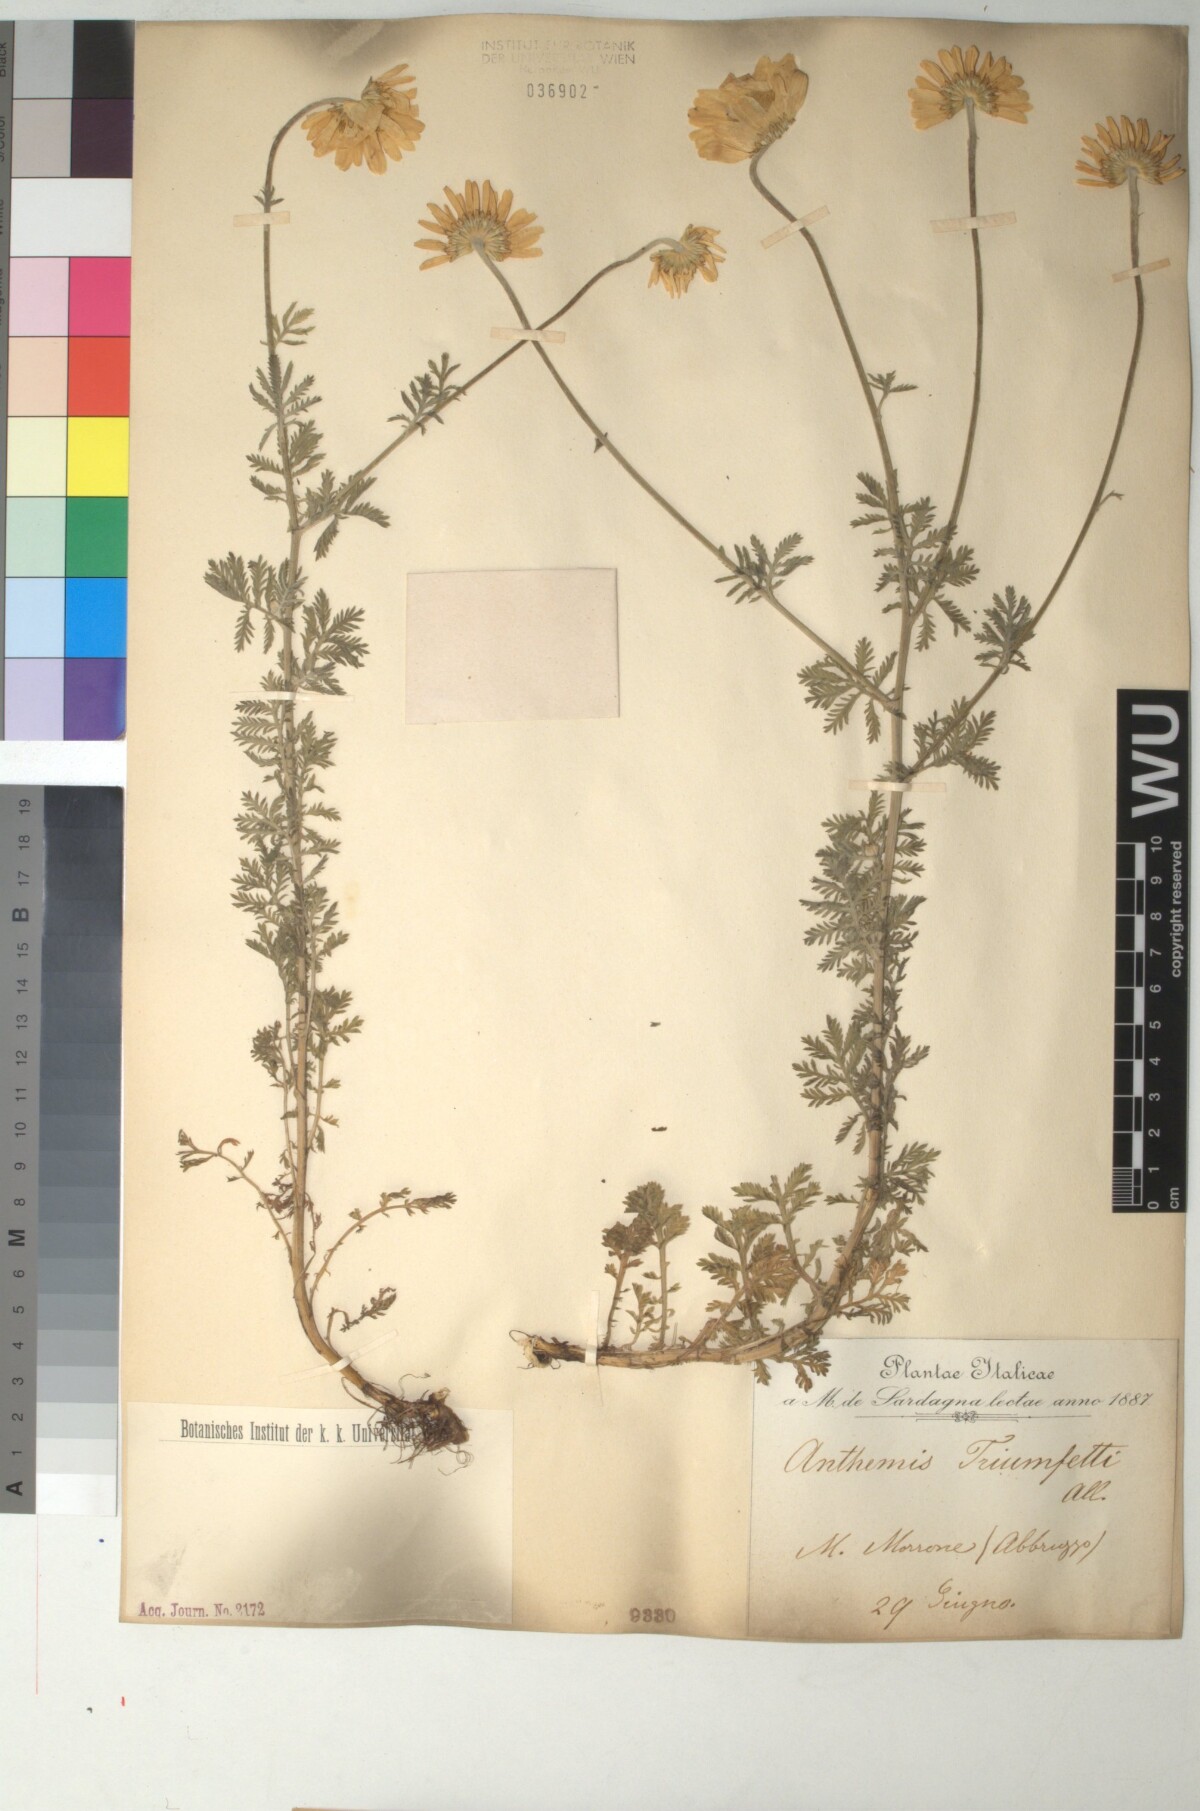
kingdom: Plantae
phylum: Tracheophyta
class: Magnoliopsida
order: Asterales
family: Asteraceae
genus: Cota
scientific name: Cota triumfetti
